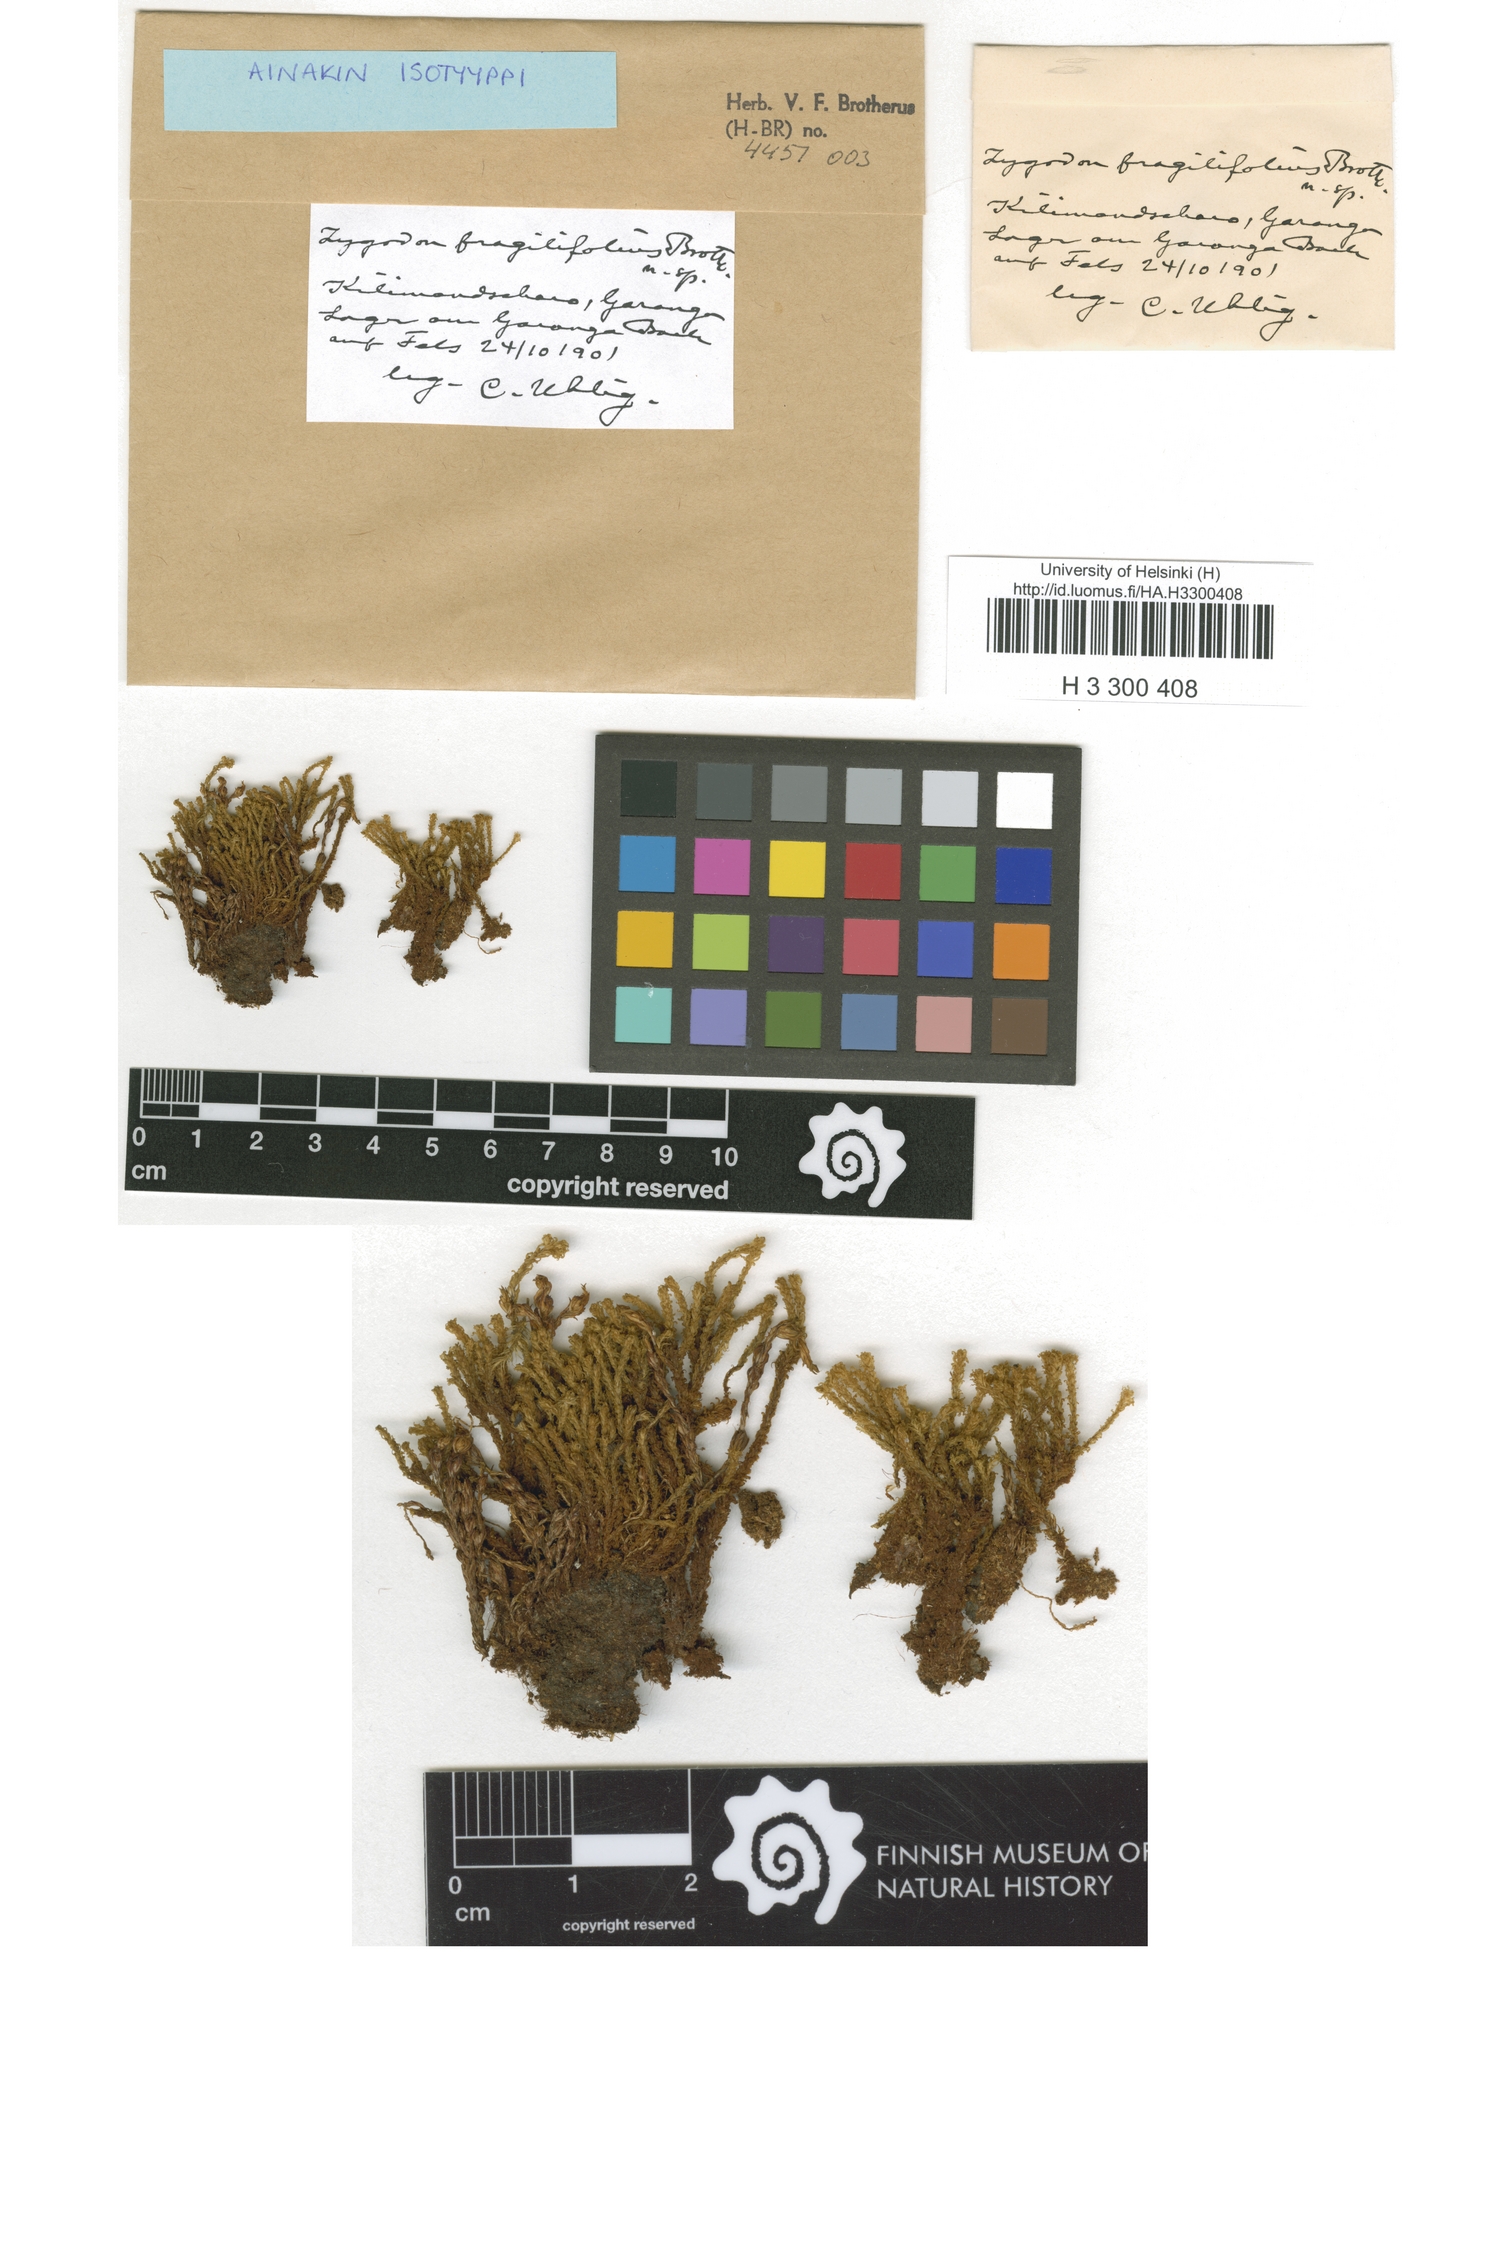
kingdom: Plantae
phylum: Bryophyta
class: Bryopsida
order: Orthotrichales
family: Orthotrichaceae
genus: Zygodon
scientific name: Zygodon fragilifolius
